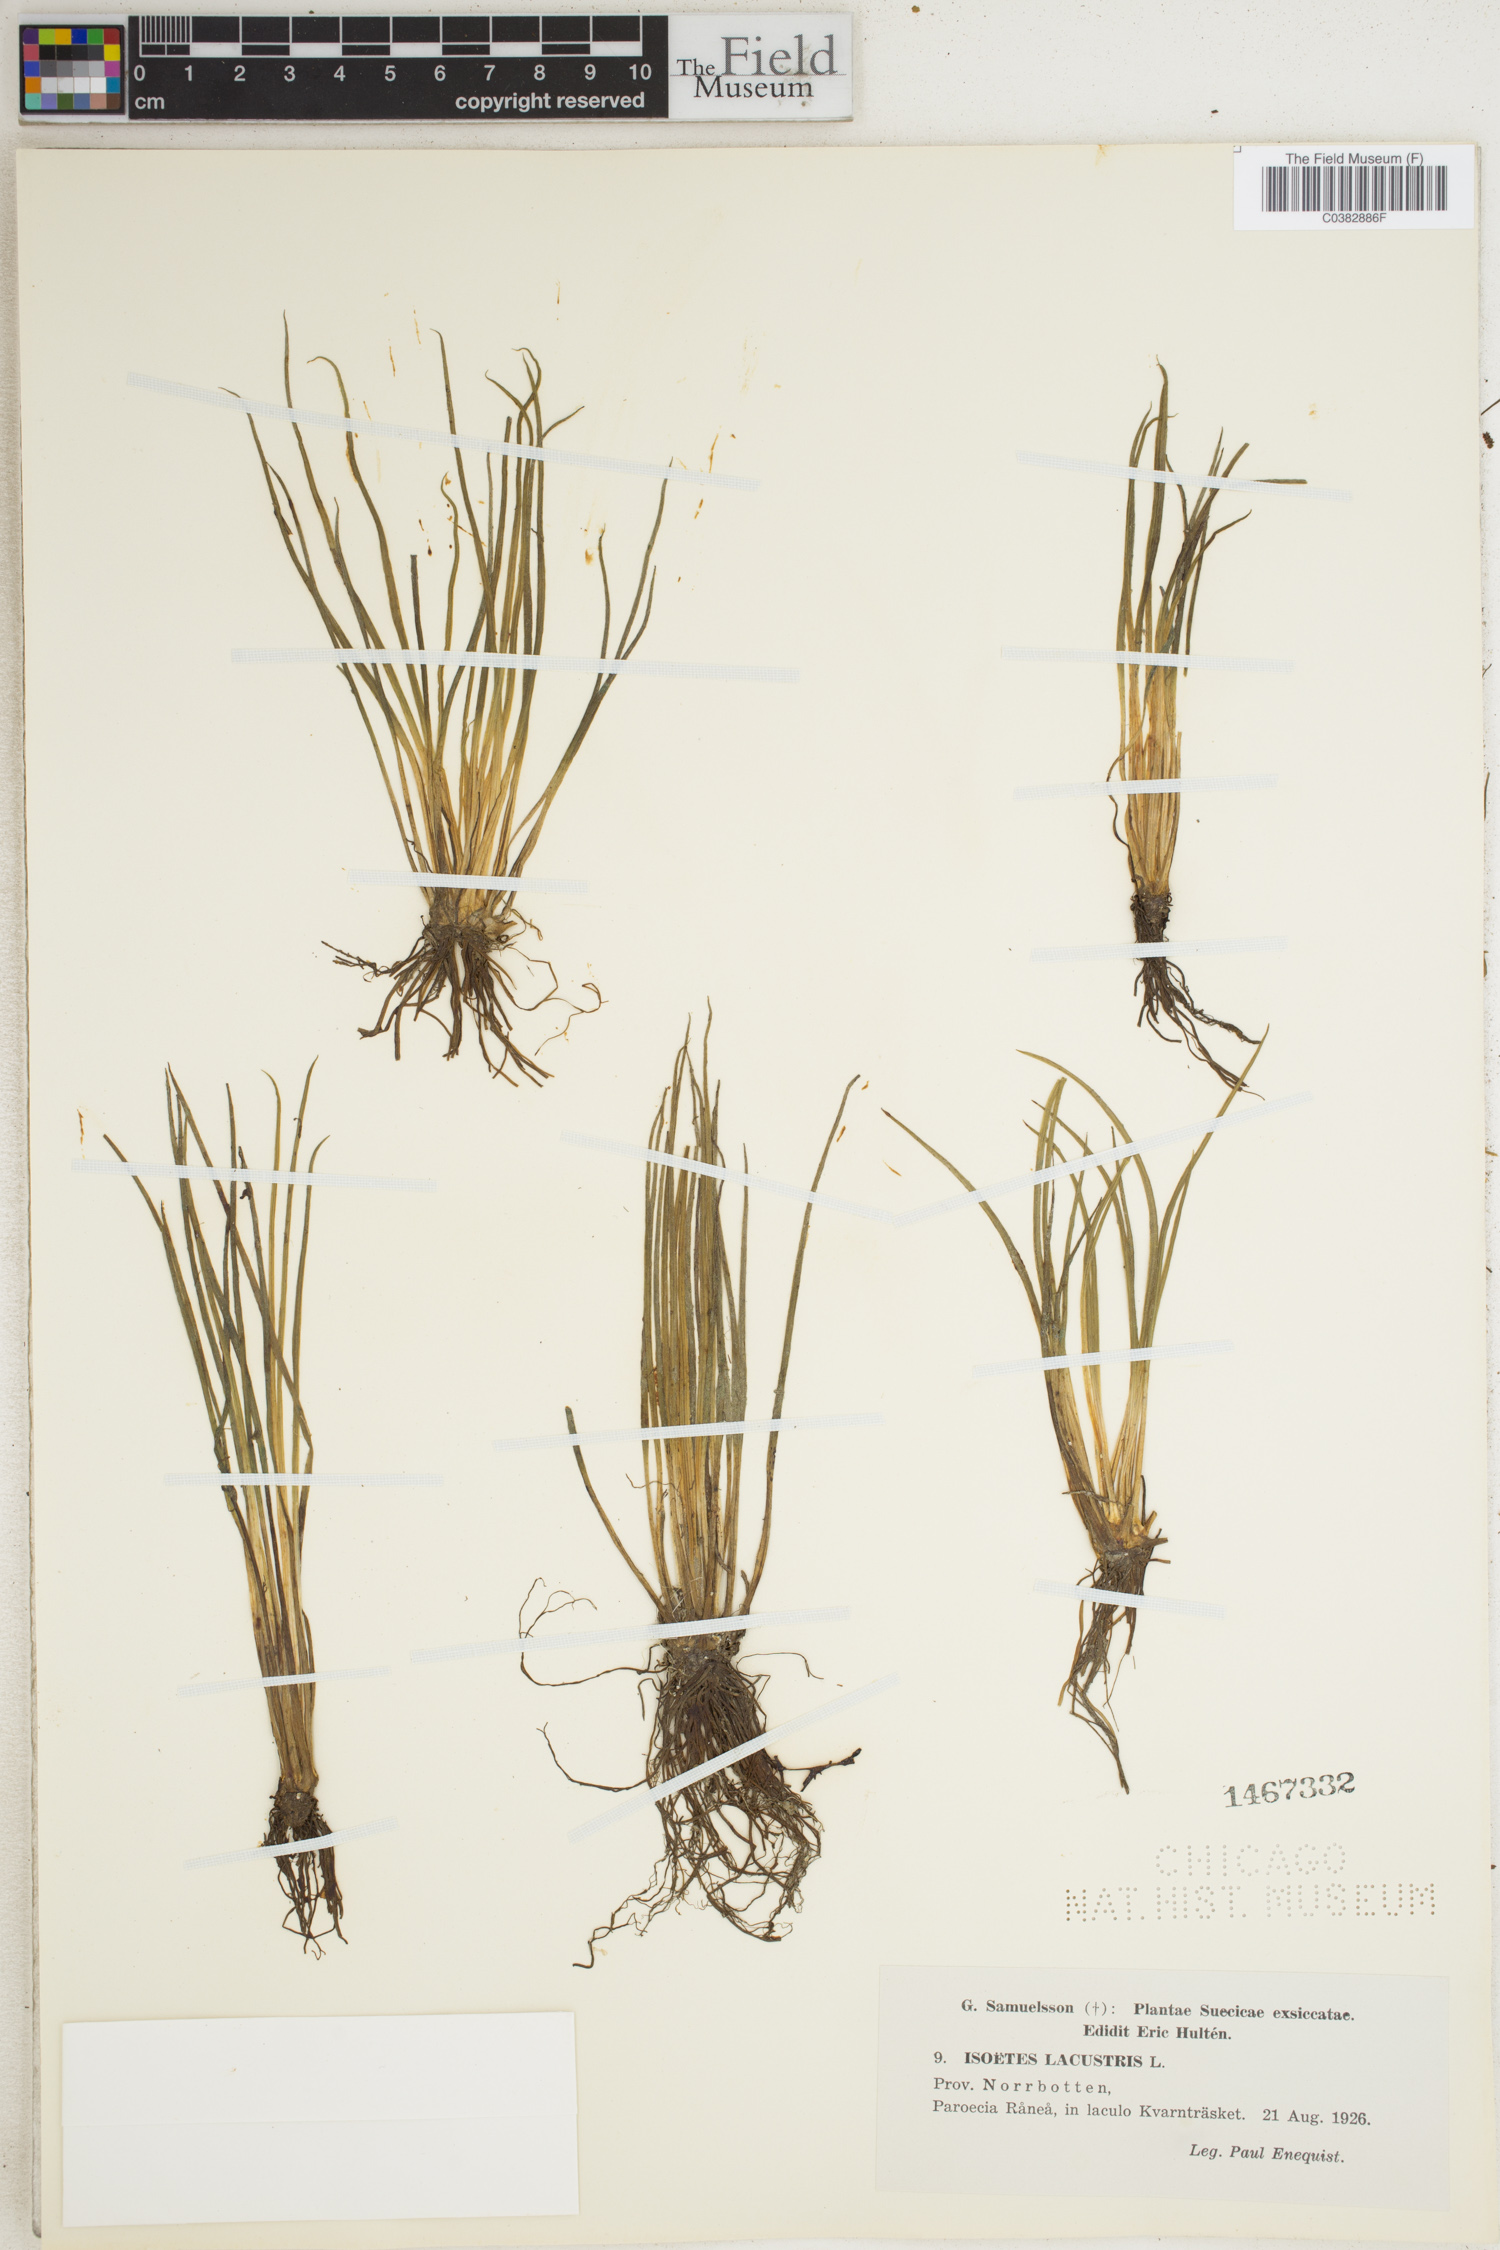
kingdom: Plantae
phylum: Tracheophyta
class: Lycopodiopsida
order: Isoetales
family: Isoetaceae
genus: Isoetes
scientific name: Isoetes lacustris
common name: Common quillwort
